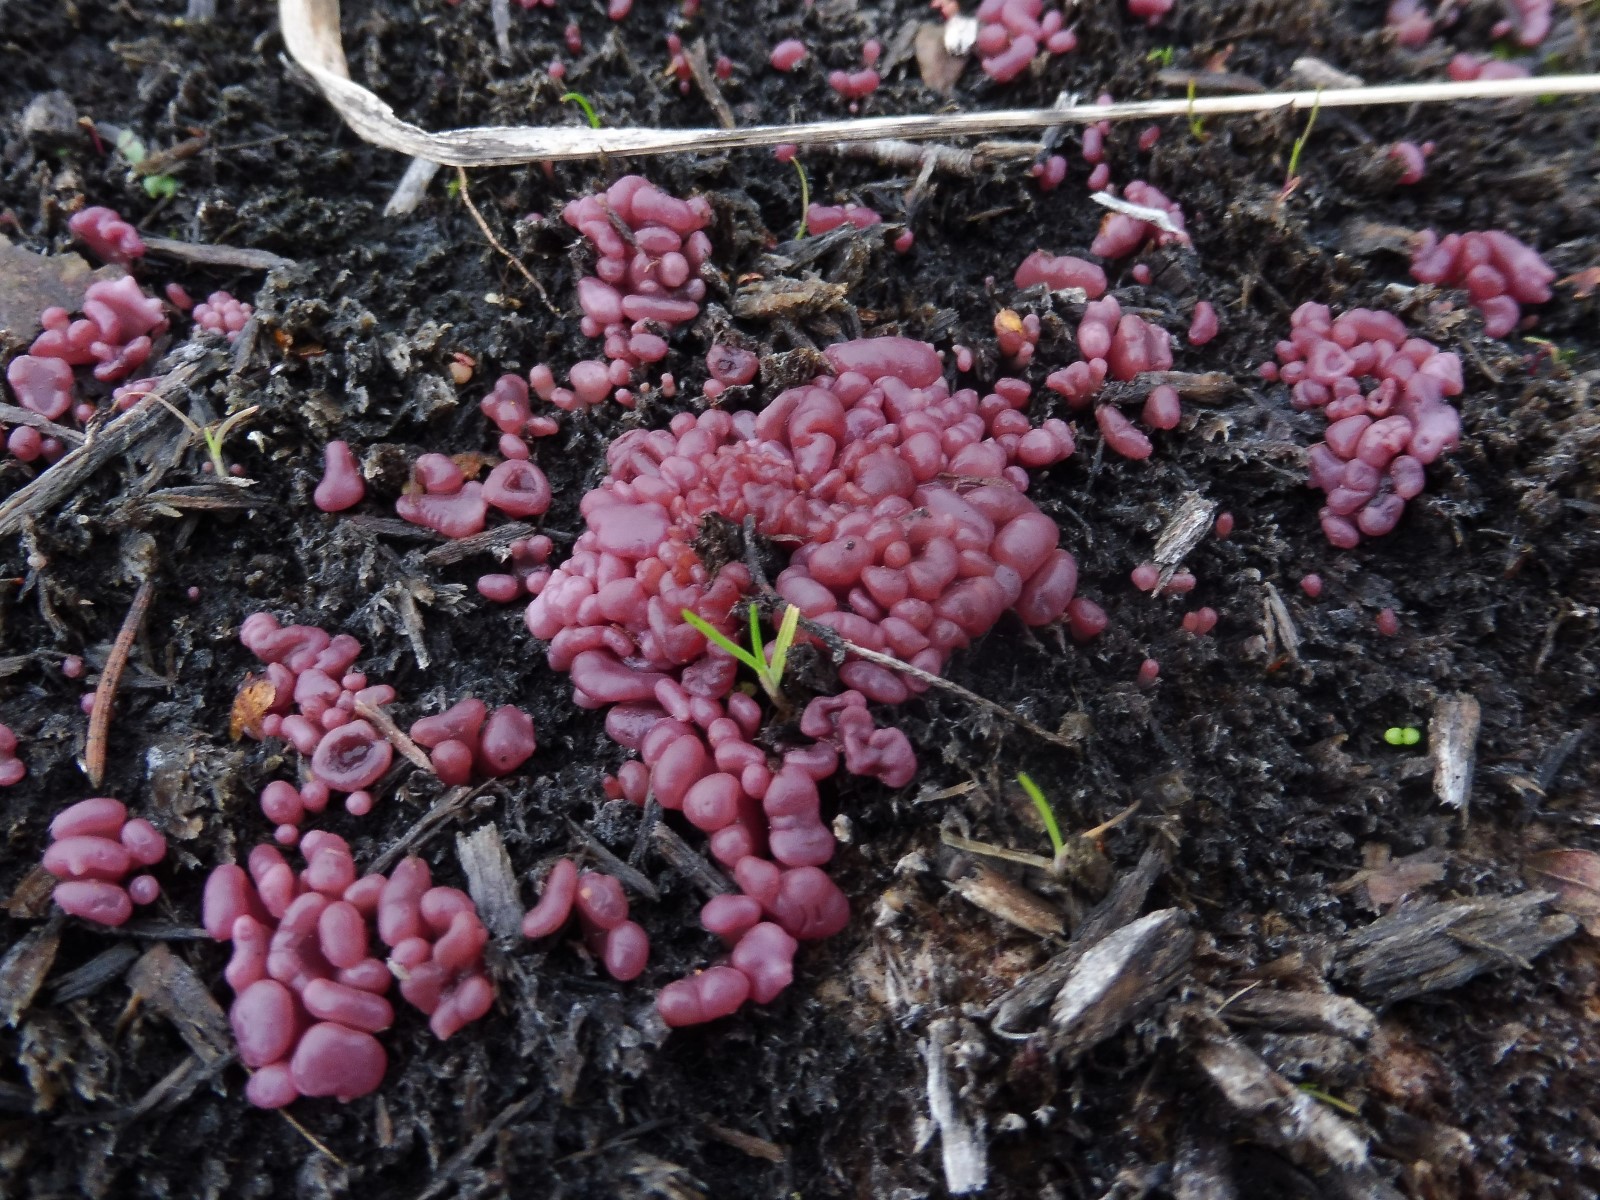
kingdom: Fungi
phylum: Ascomycota
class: Leotiomycetes
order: Helotiales
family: Gelatinodiscaceae
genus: Ascocoryne
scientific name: Ascocoryne sarcoides
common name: rødlilla sejskive
